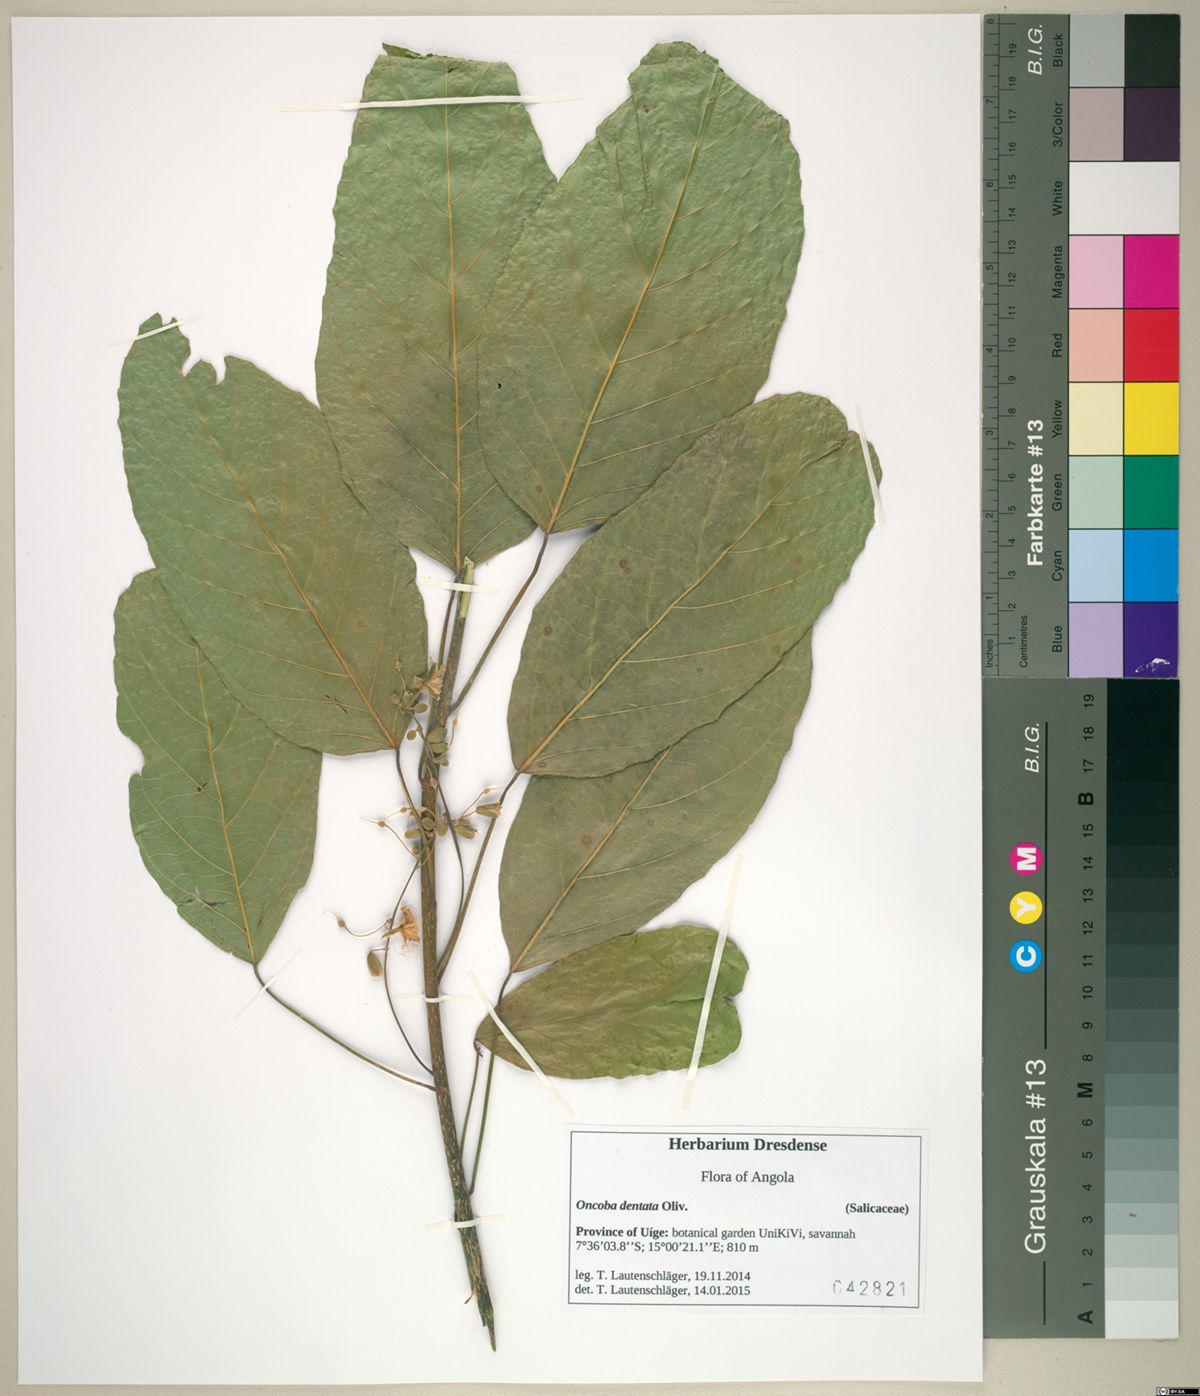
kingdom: Plantae
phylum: Tracheophyta
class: Magnoliopsida
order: Malpighiales
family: Achariaceae
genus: Lindackeria
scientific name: Lindackeria dentata
